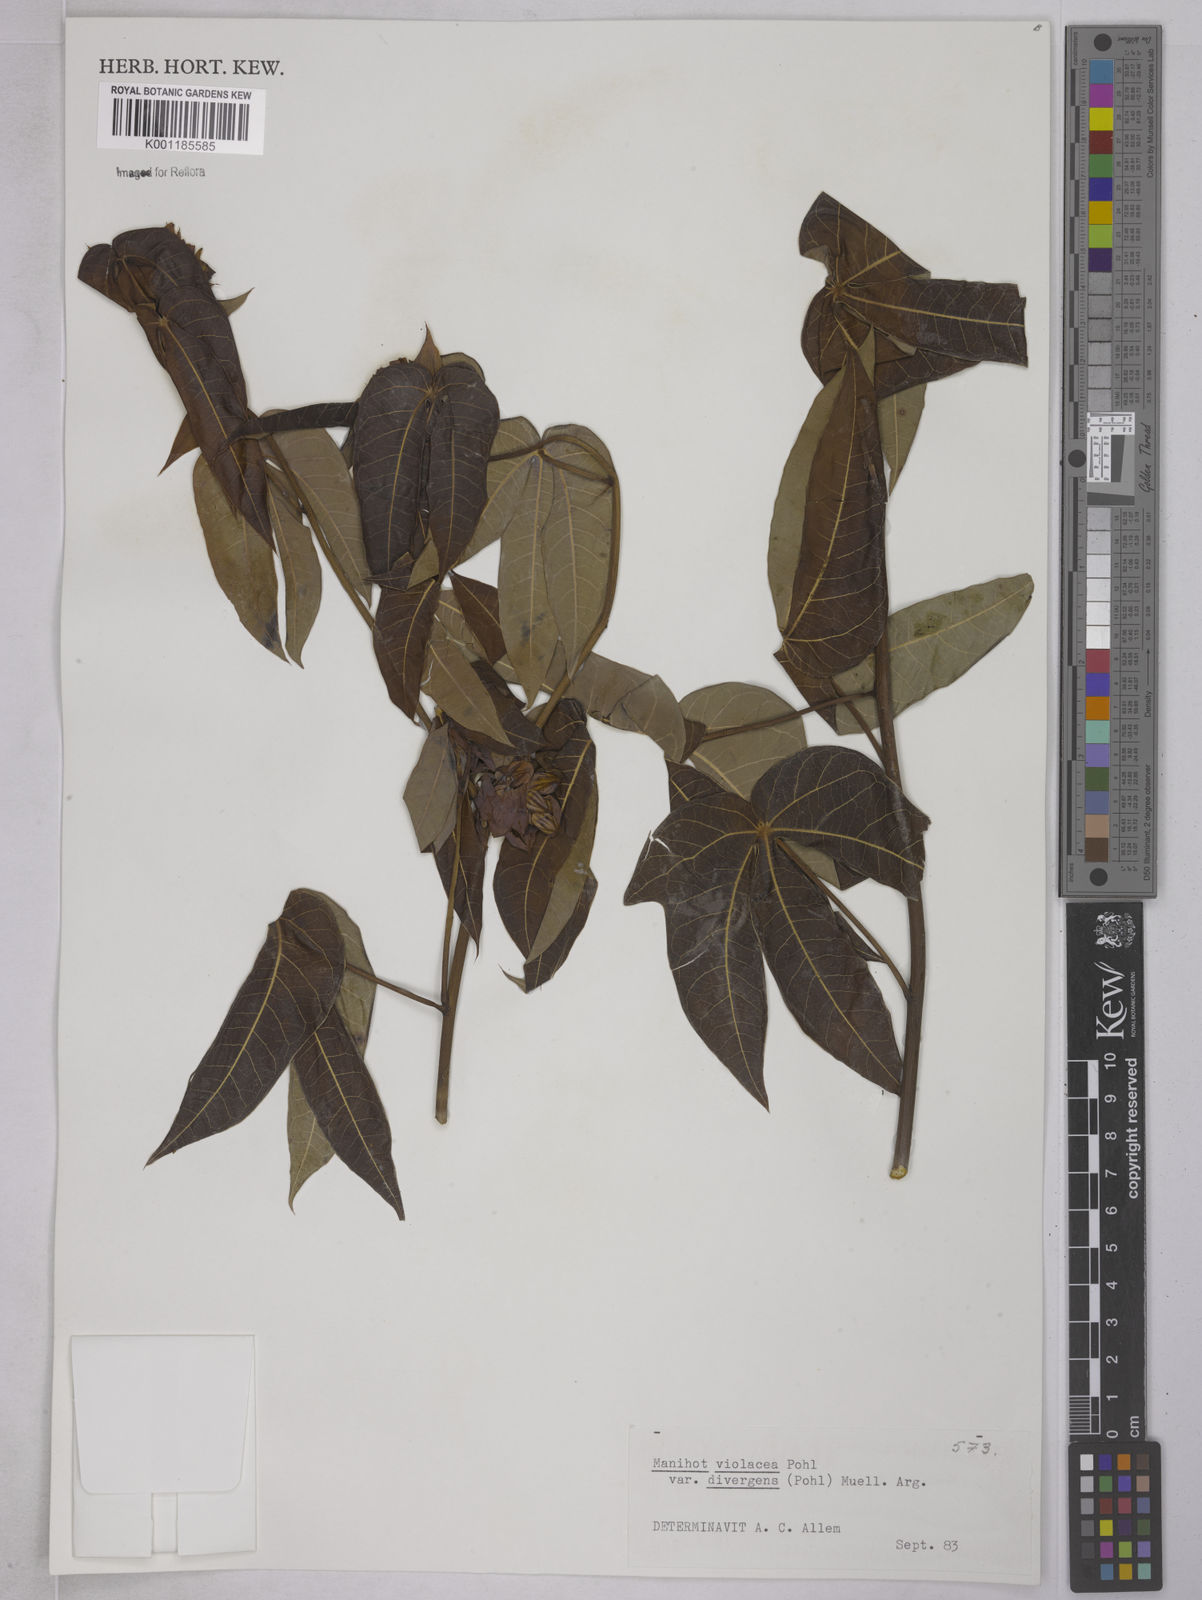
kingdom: Plantae
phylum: Tracheophyta
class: Magnoliopsida
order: Malpighiales
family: Euphorbiaceae
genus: Manihot
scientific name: Manihot divergens
